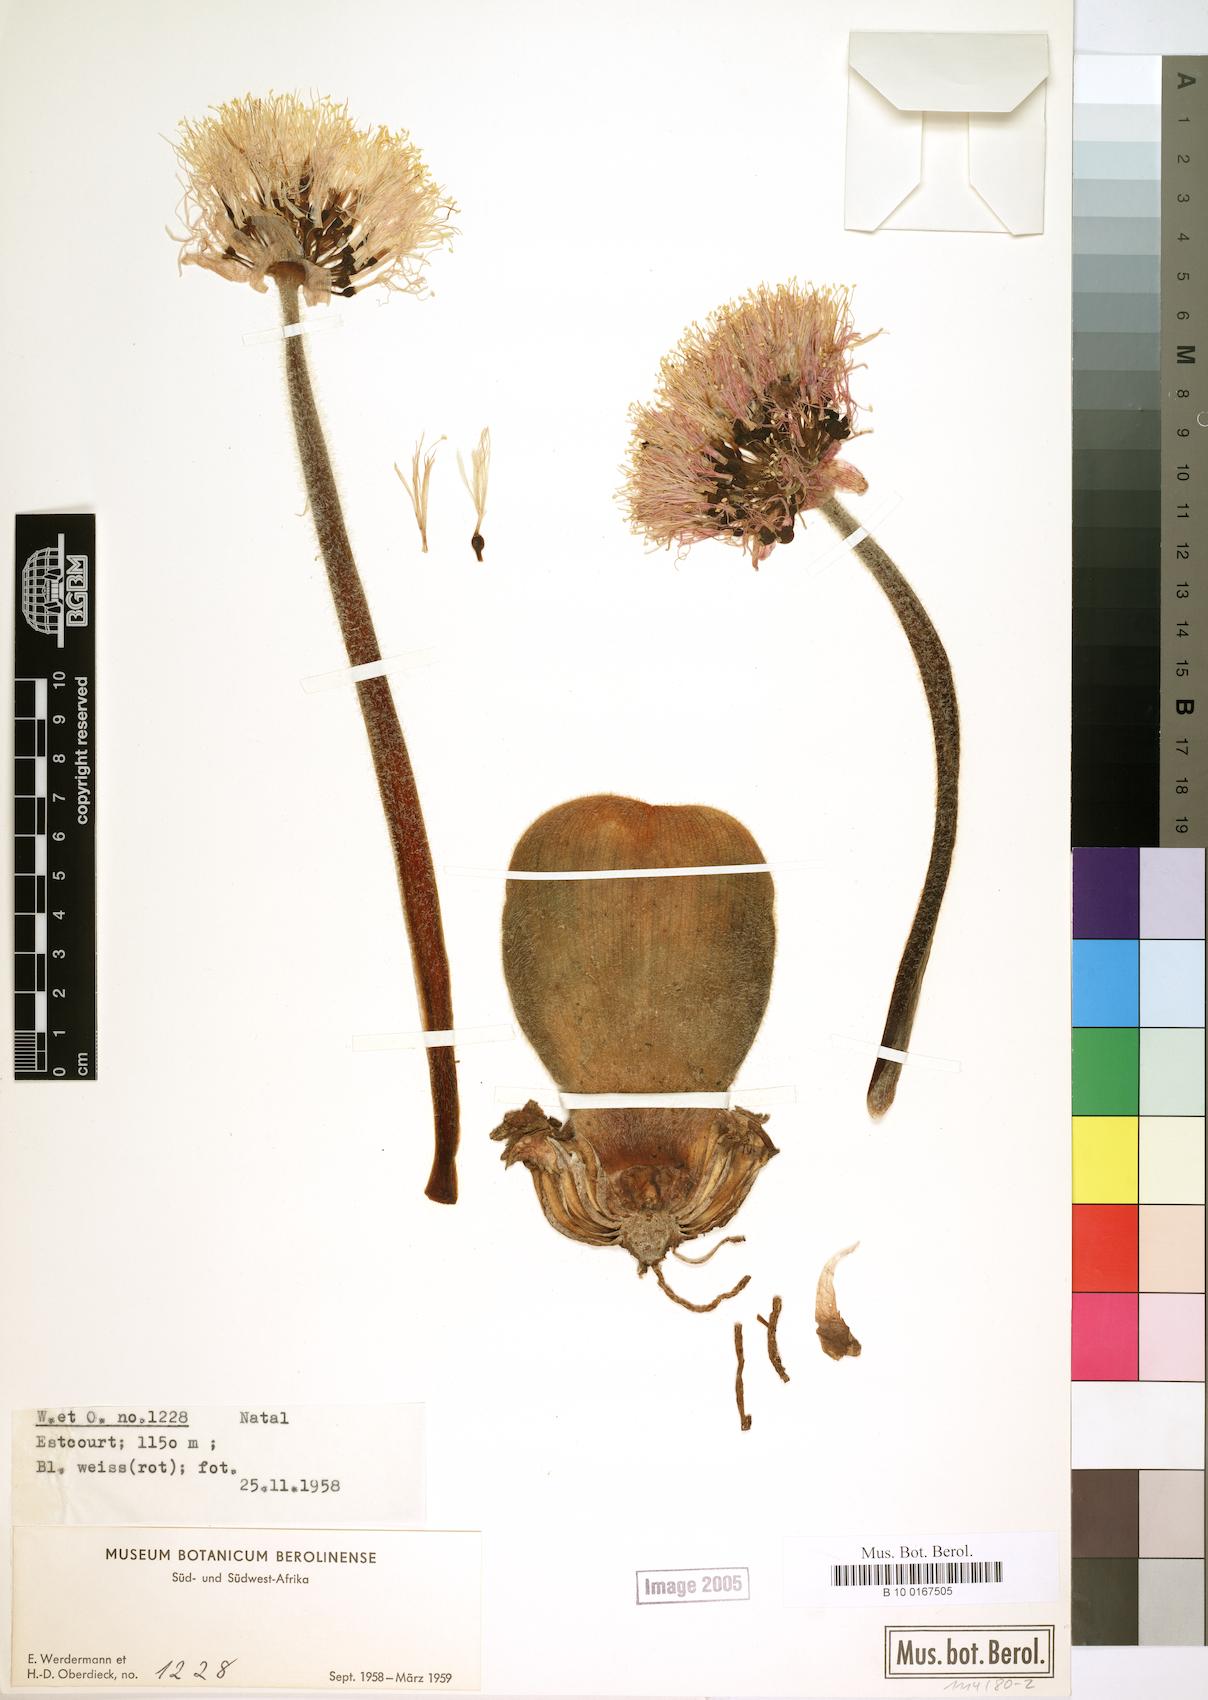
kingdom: Plantae
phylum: Tracheophyta
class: Liliopsida
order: Asparagales
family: Amaryllidaceae
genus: Haemanthus
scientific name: Haemanthus
